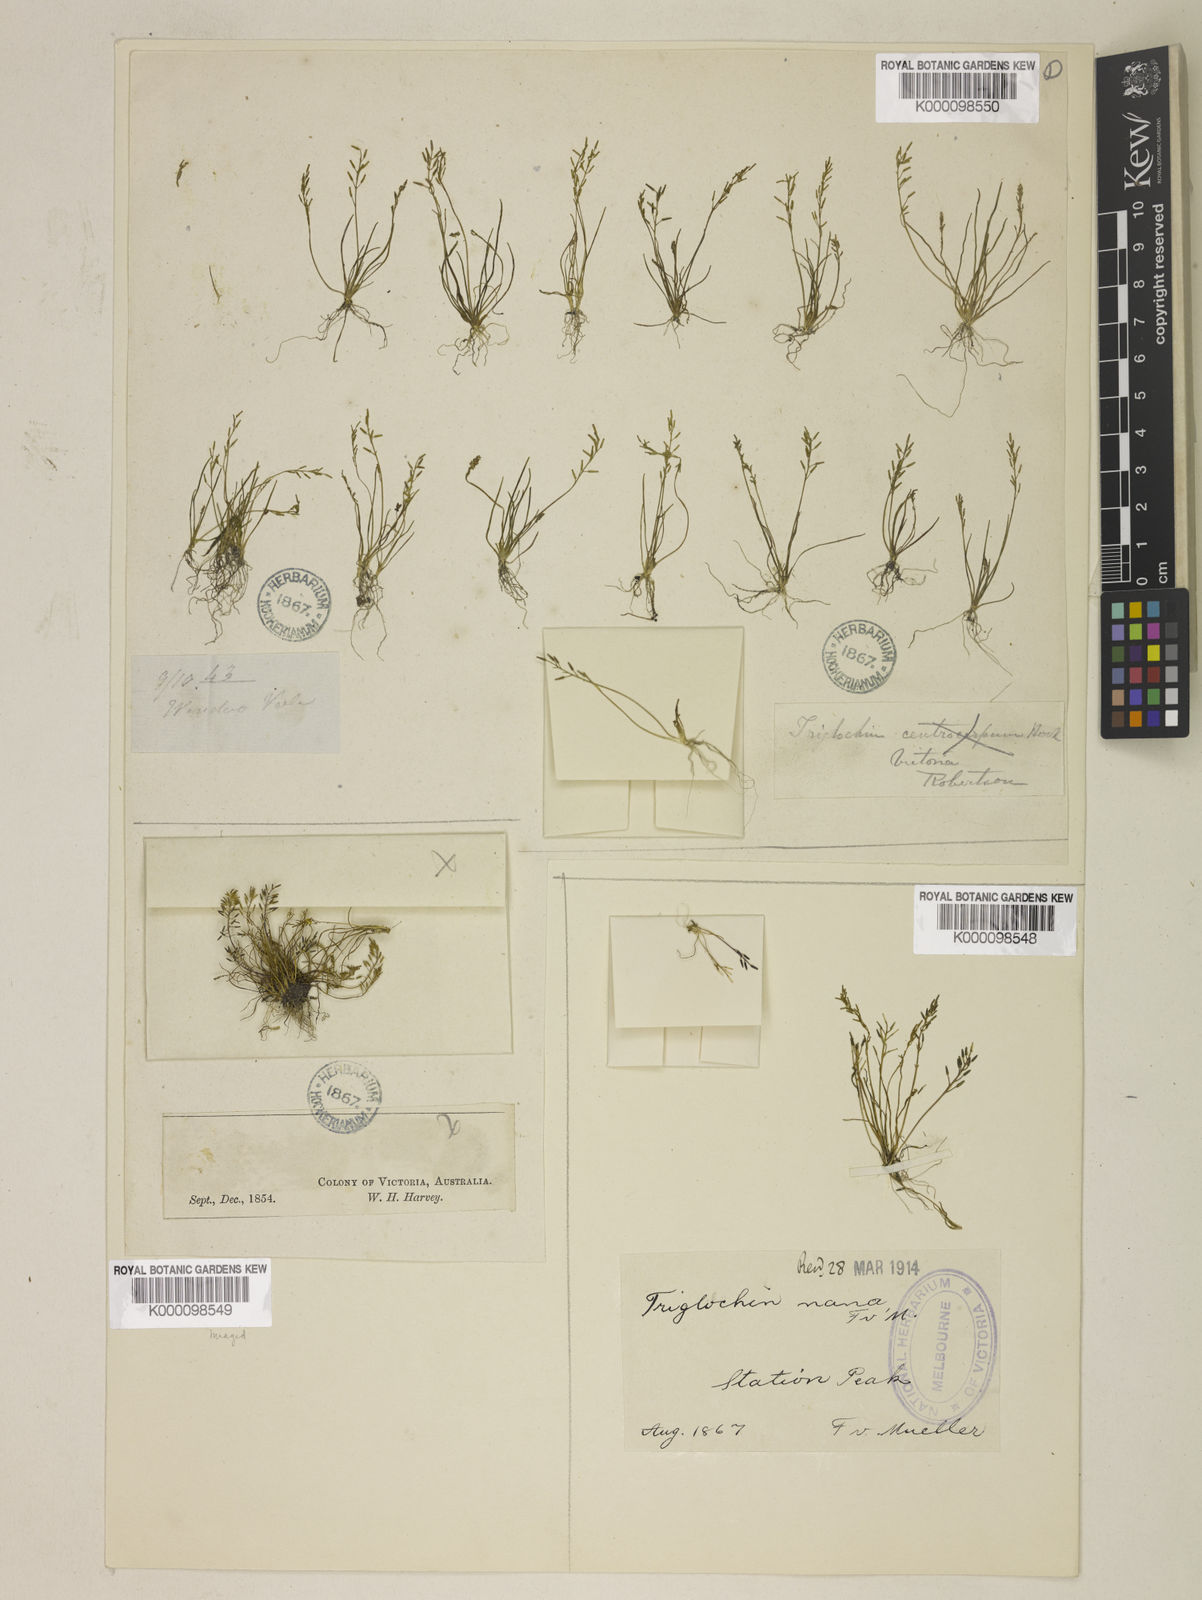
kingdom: Plantae
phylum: Tracheophyta
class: Liliopsida
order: Alismatales
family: Juncaginaceae
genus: Triglochin
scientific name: Triglochin nana
